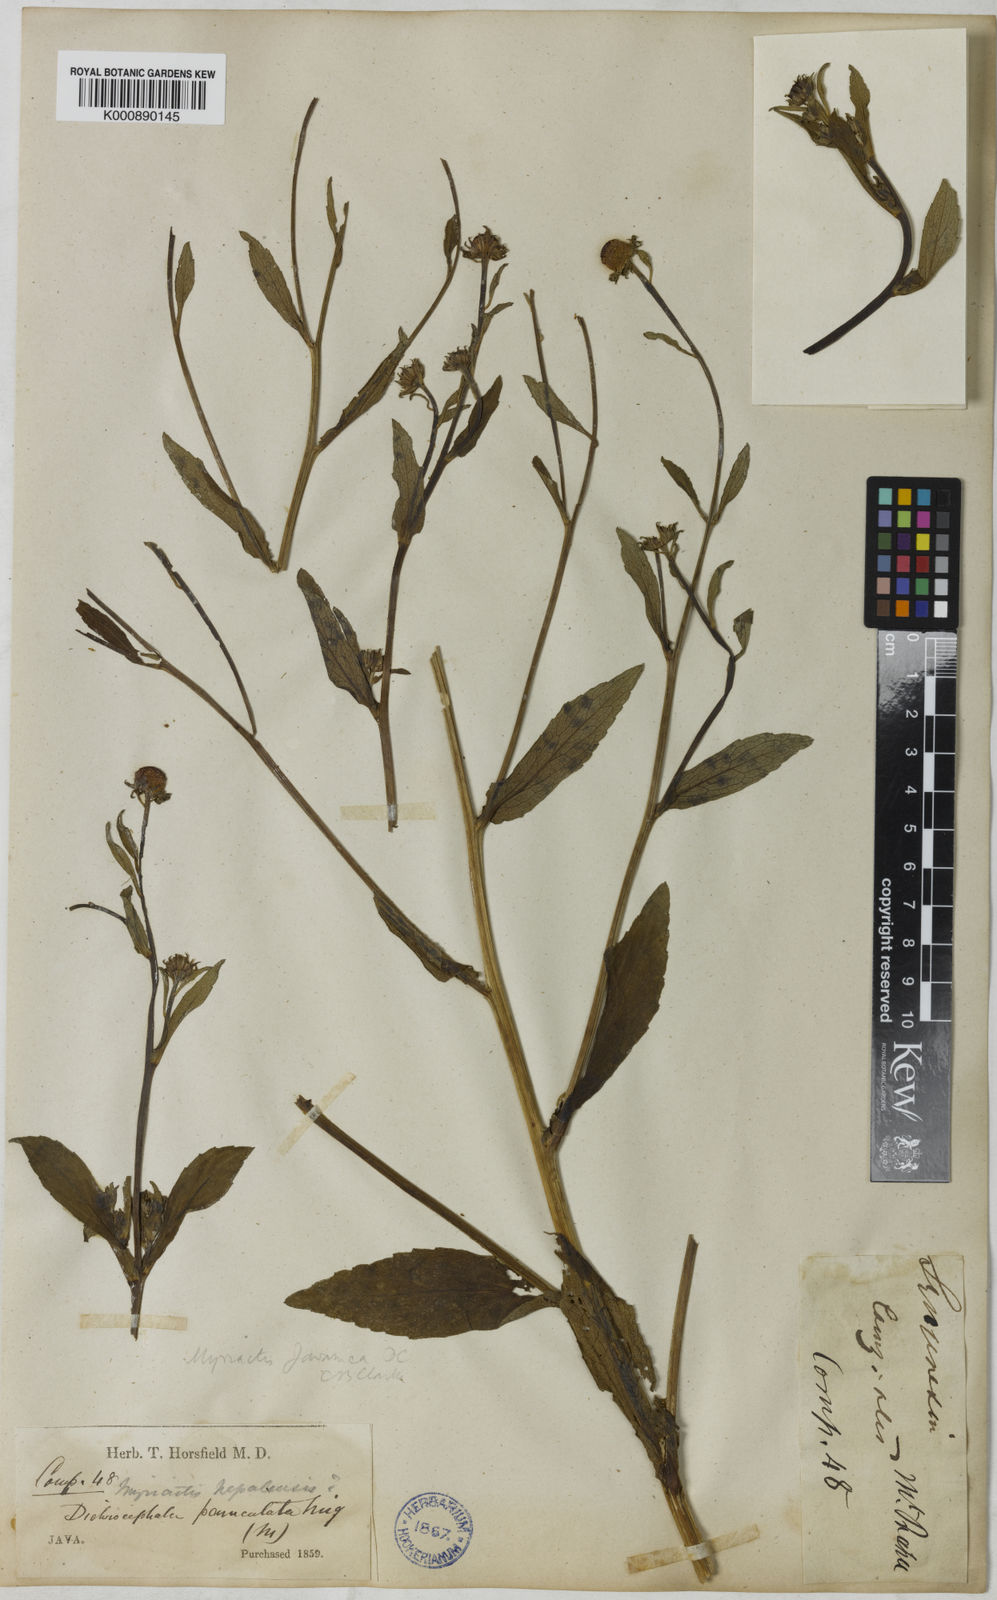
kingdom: Plantae
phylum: Tracheophyta
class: Magnoliopsida
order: Asterales
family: Asteraceae
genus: Myriactis
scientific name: Myriactis javanica
